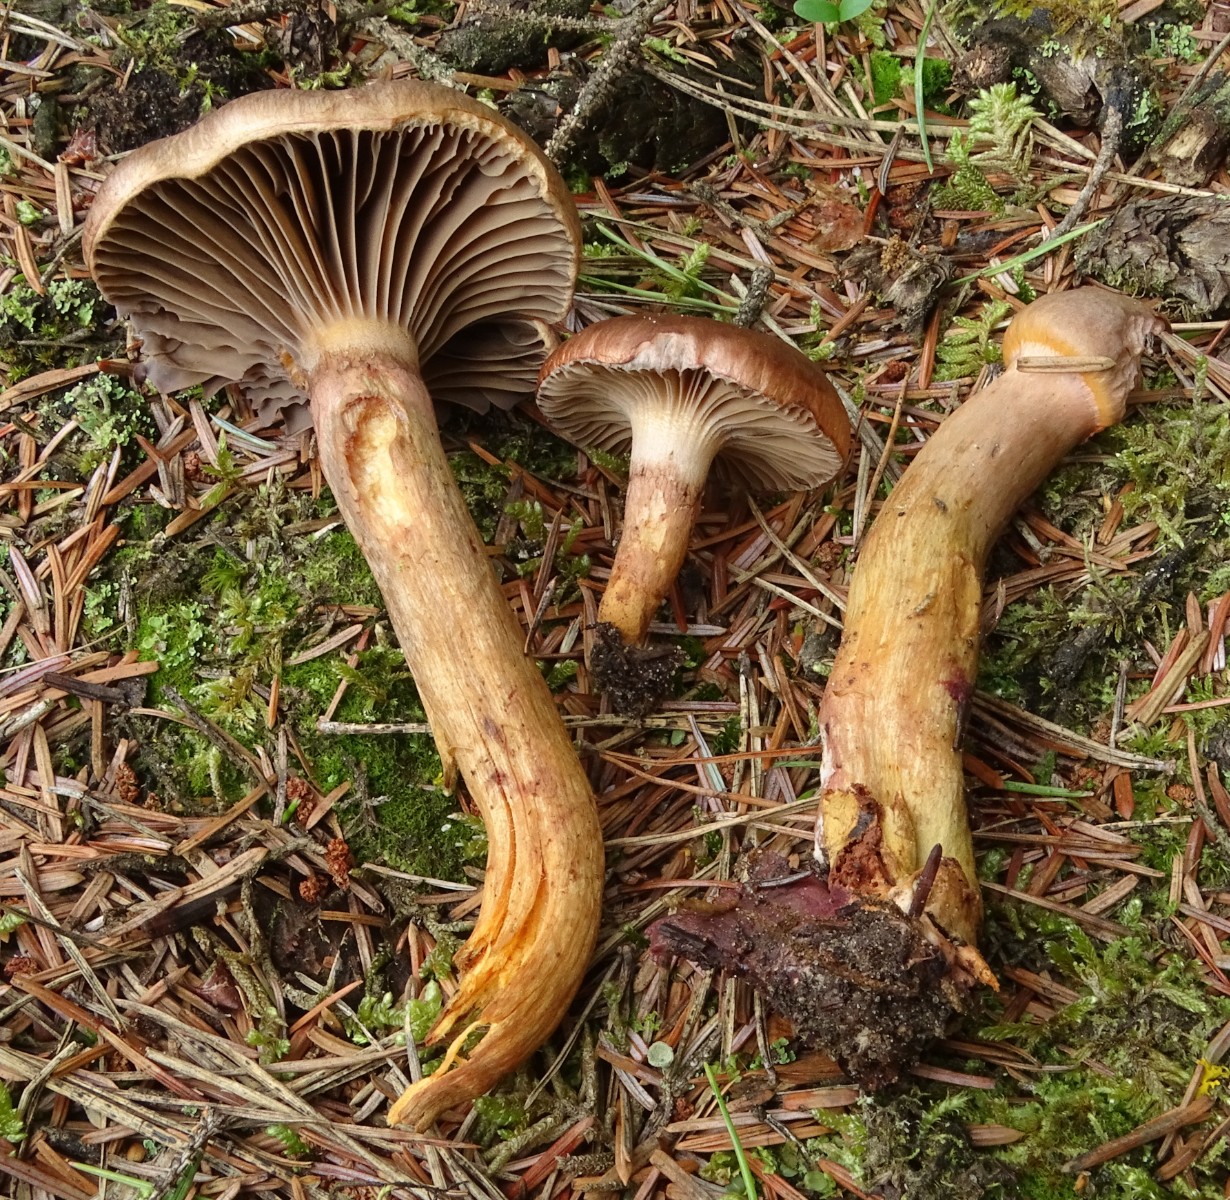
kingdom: Fungi
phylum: Basidiomycota
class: Agaricomycetes
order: Boletales
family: Gomphidiaceae
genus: Chroogomphus
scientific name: Chroogomphus rutilus
